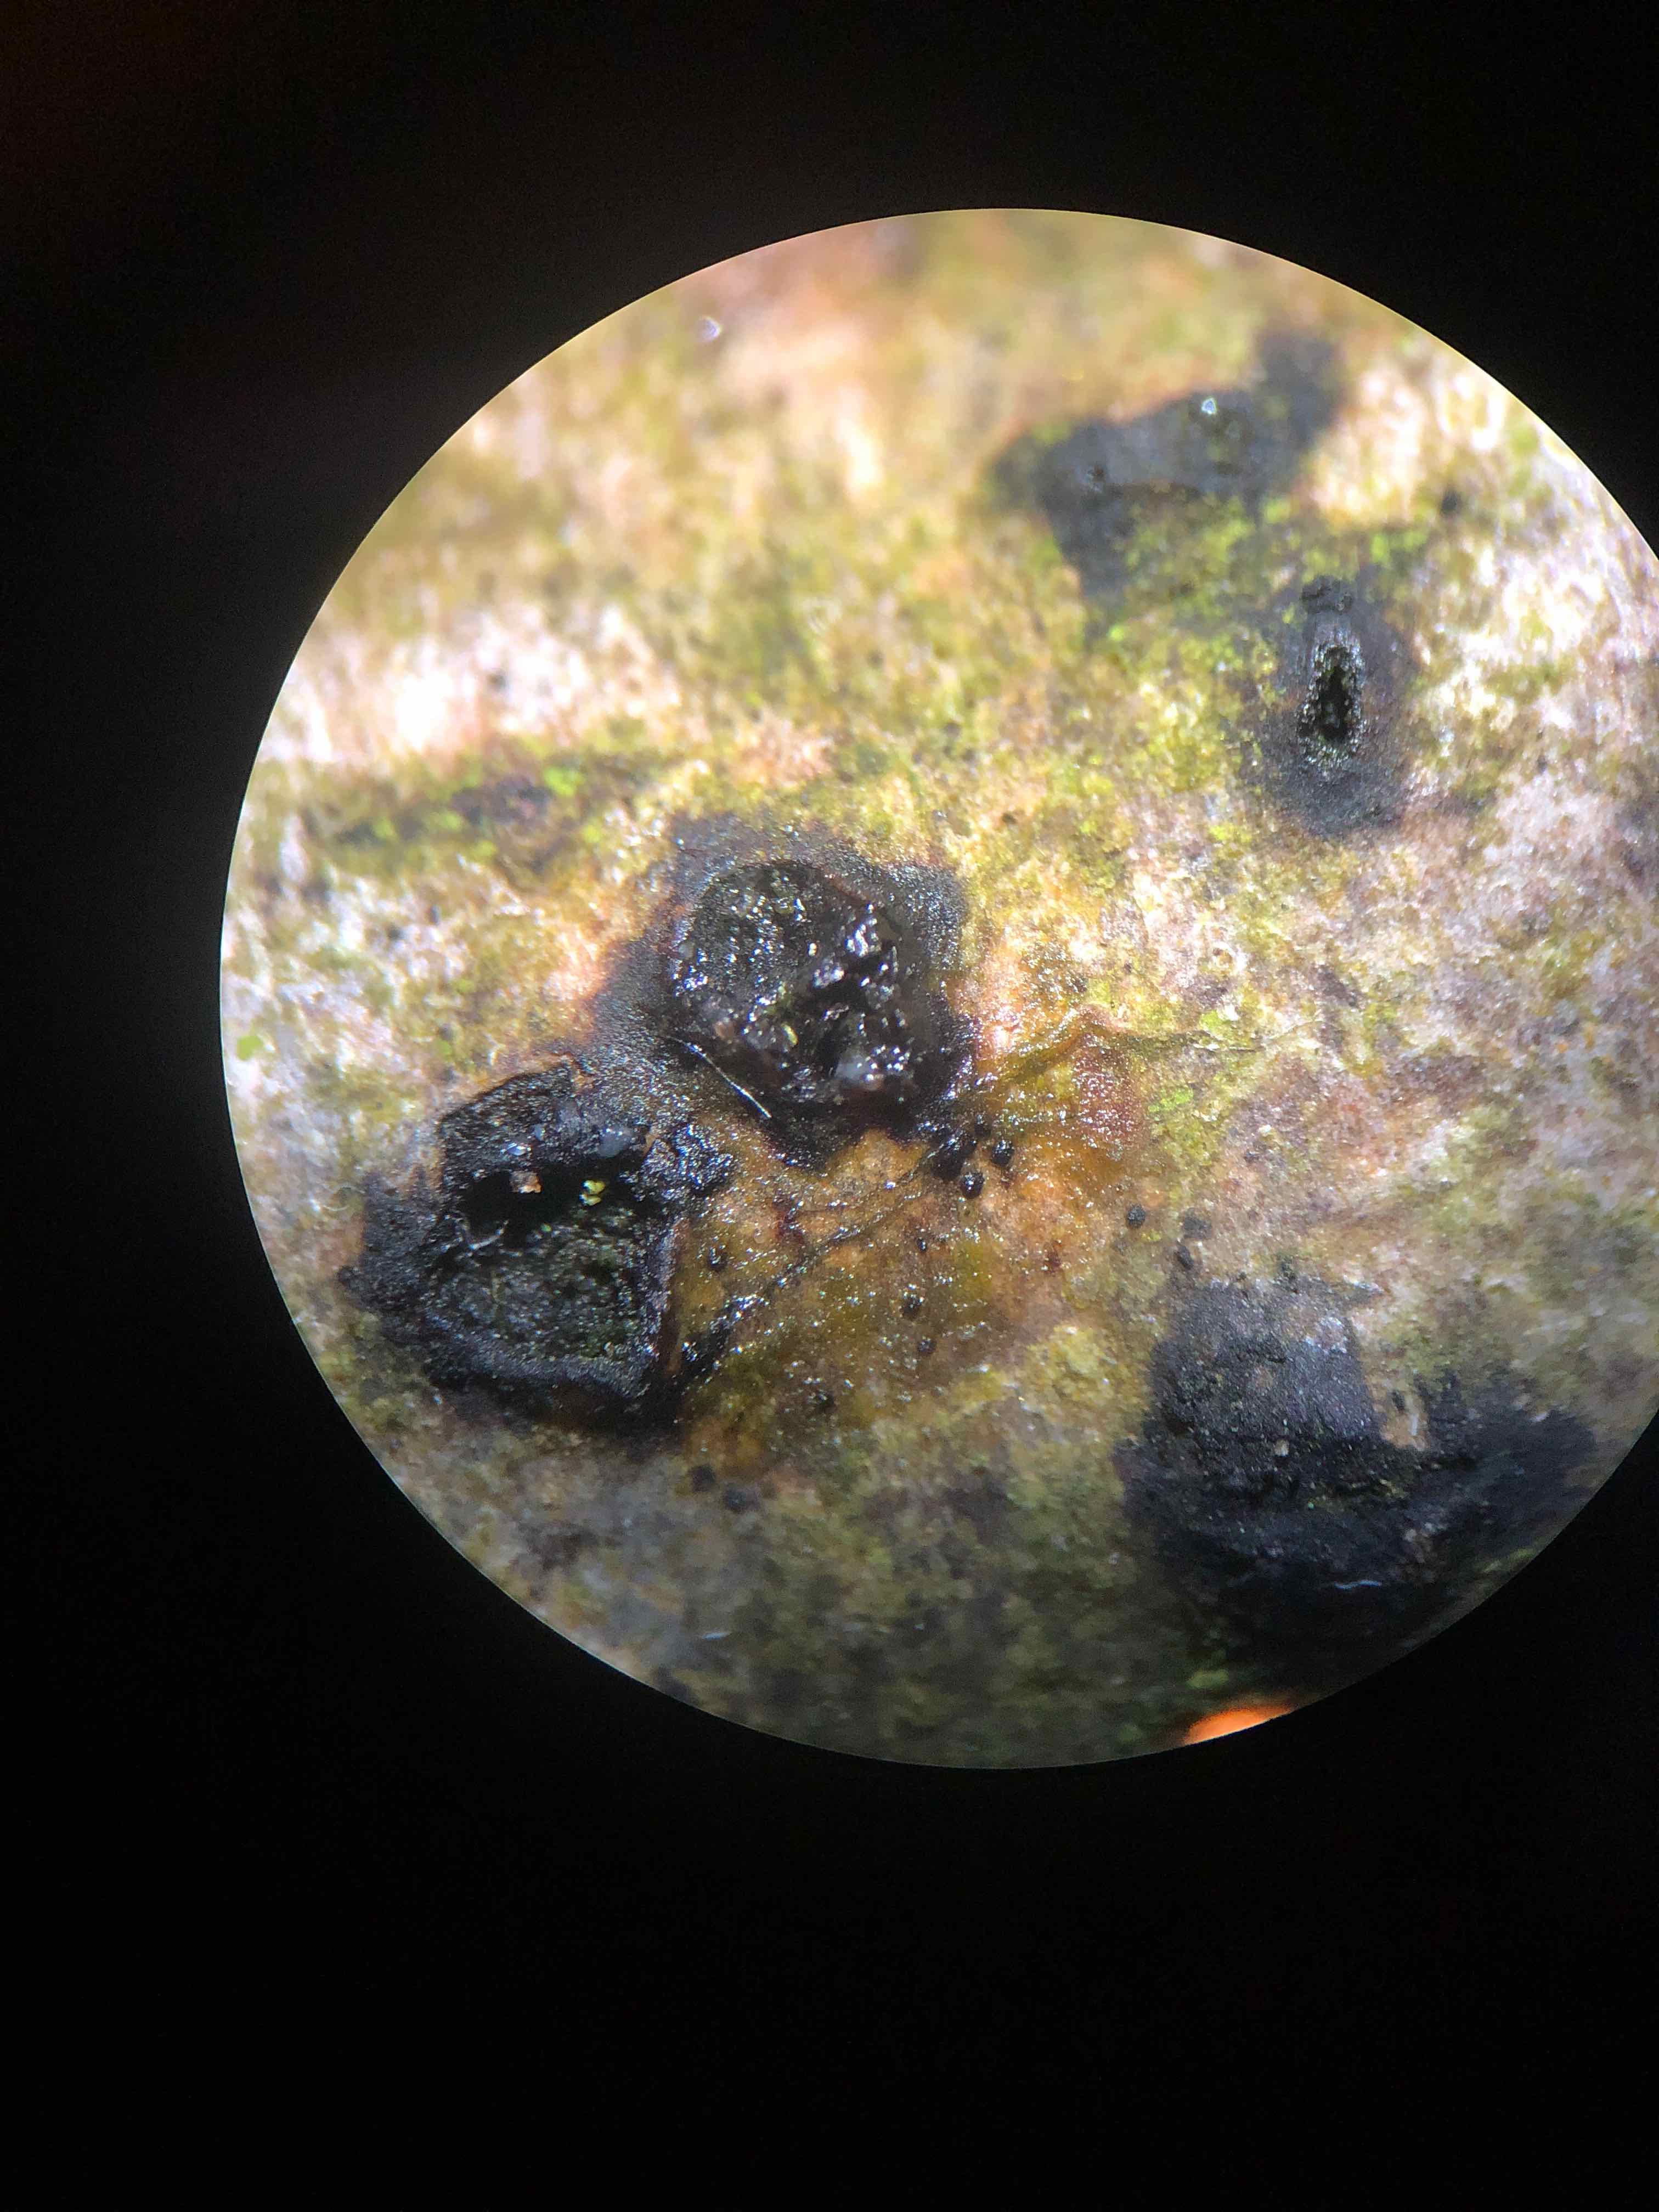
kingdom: Fungi
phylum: Ascomycota
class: Sordariomycetes
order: Xylariales
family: Melogrammataceae
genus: Melogramma
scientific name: Melogramma spiniferum
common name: bøgefod-kulhals
